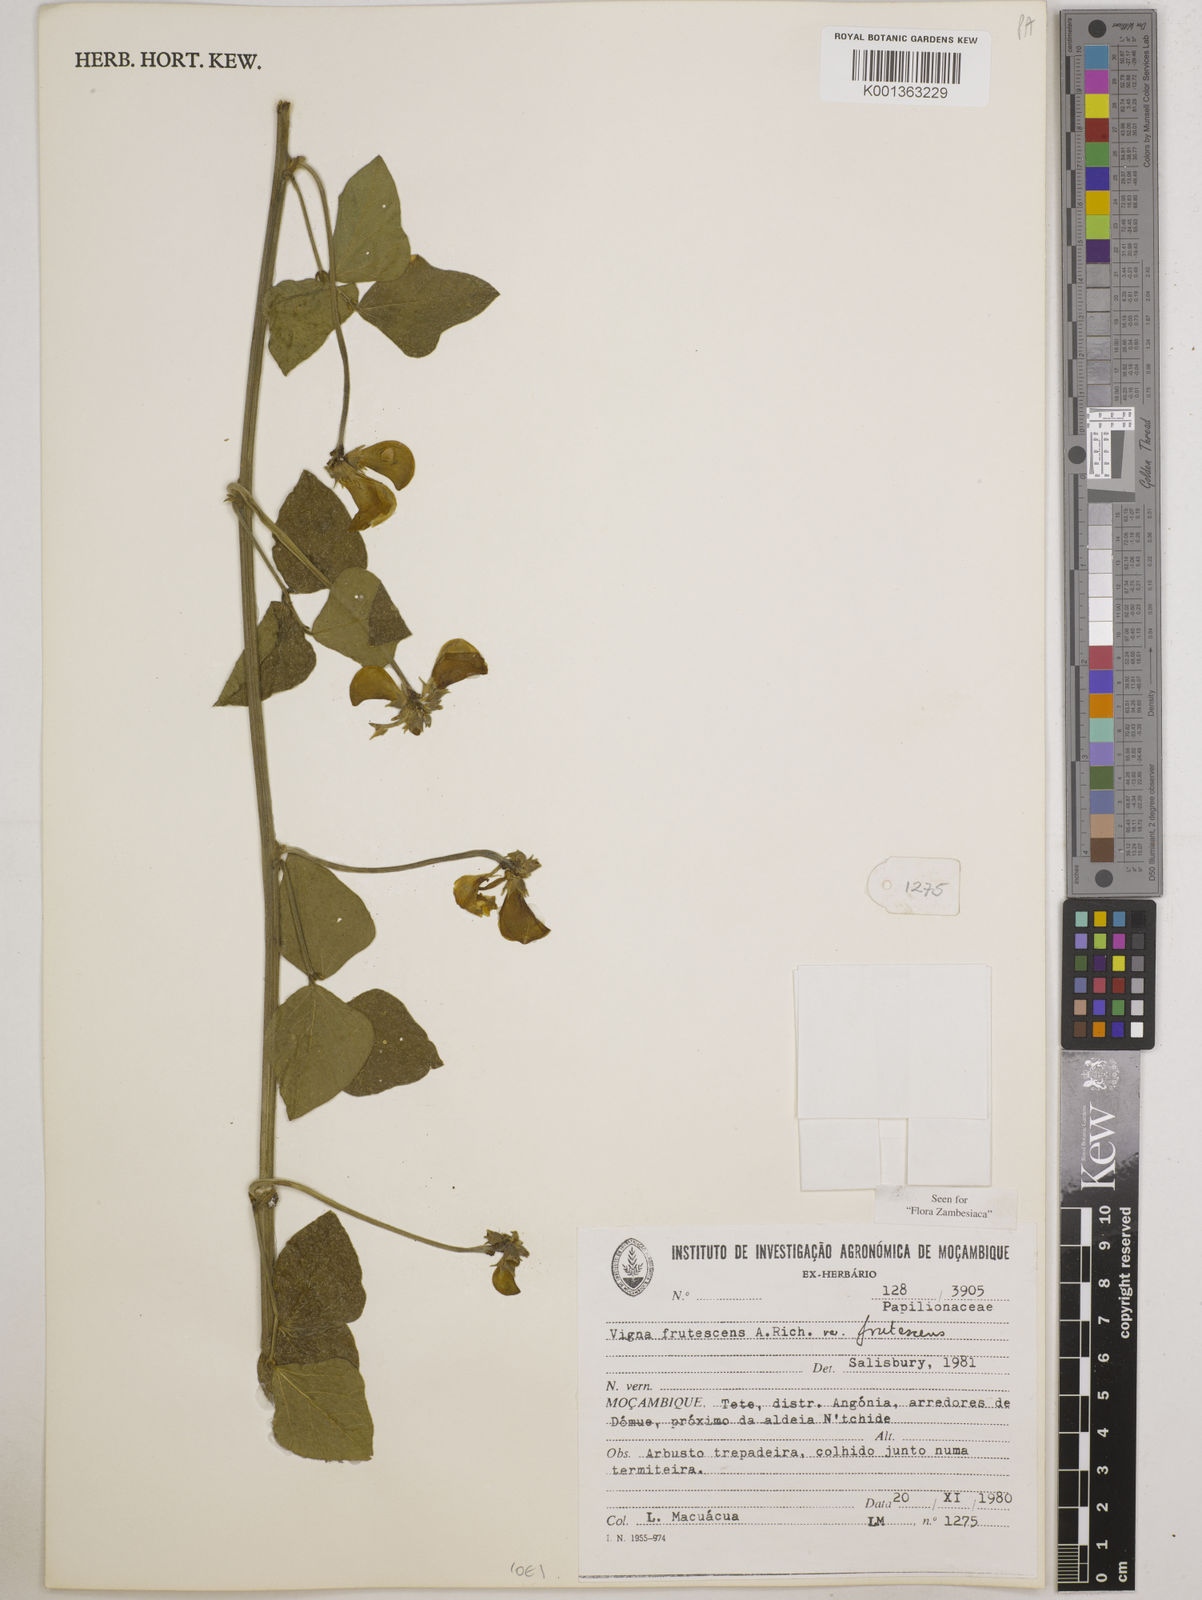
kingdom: Plantae
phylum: Tracheophyta
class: Magnoliopsida
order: Fabales
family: Fabaceae
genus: Vigna
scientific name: Vigna
